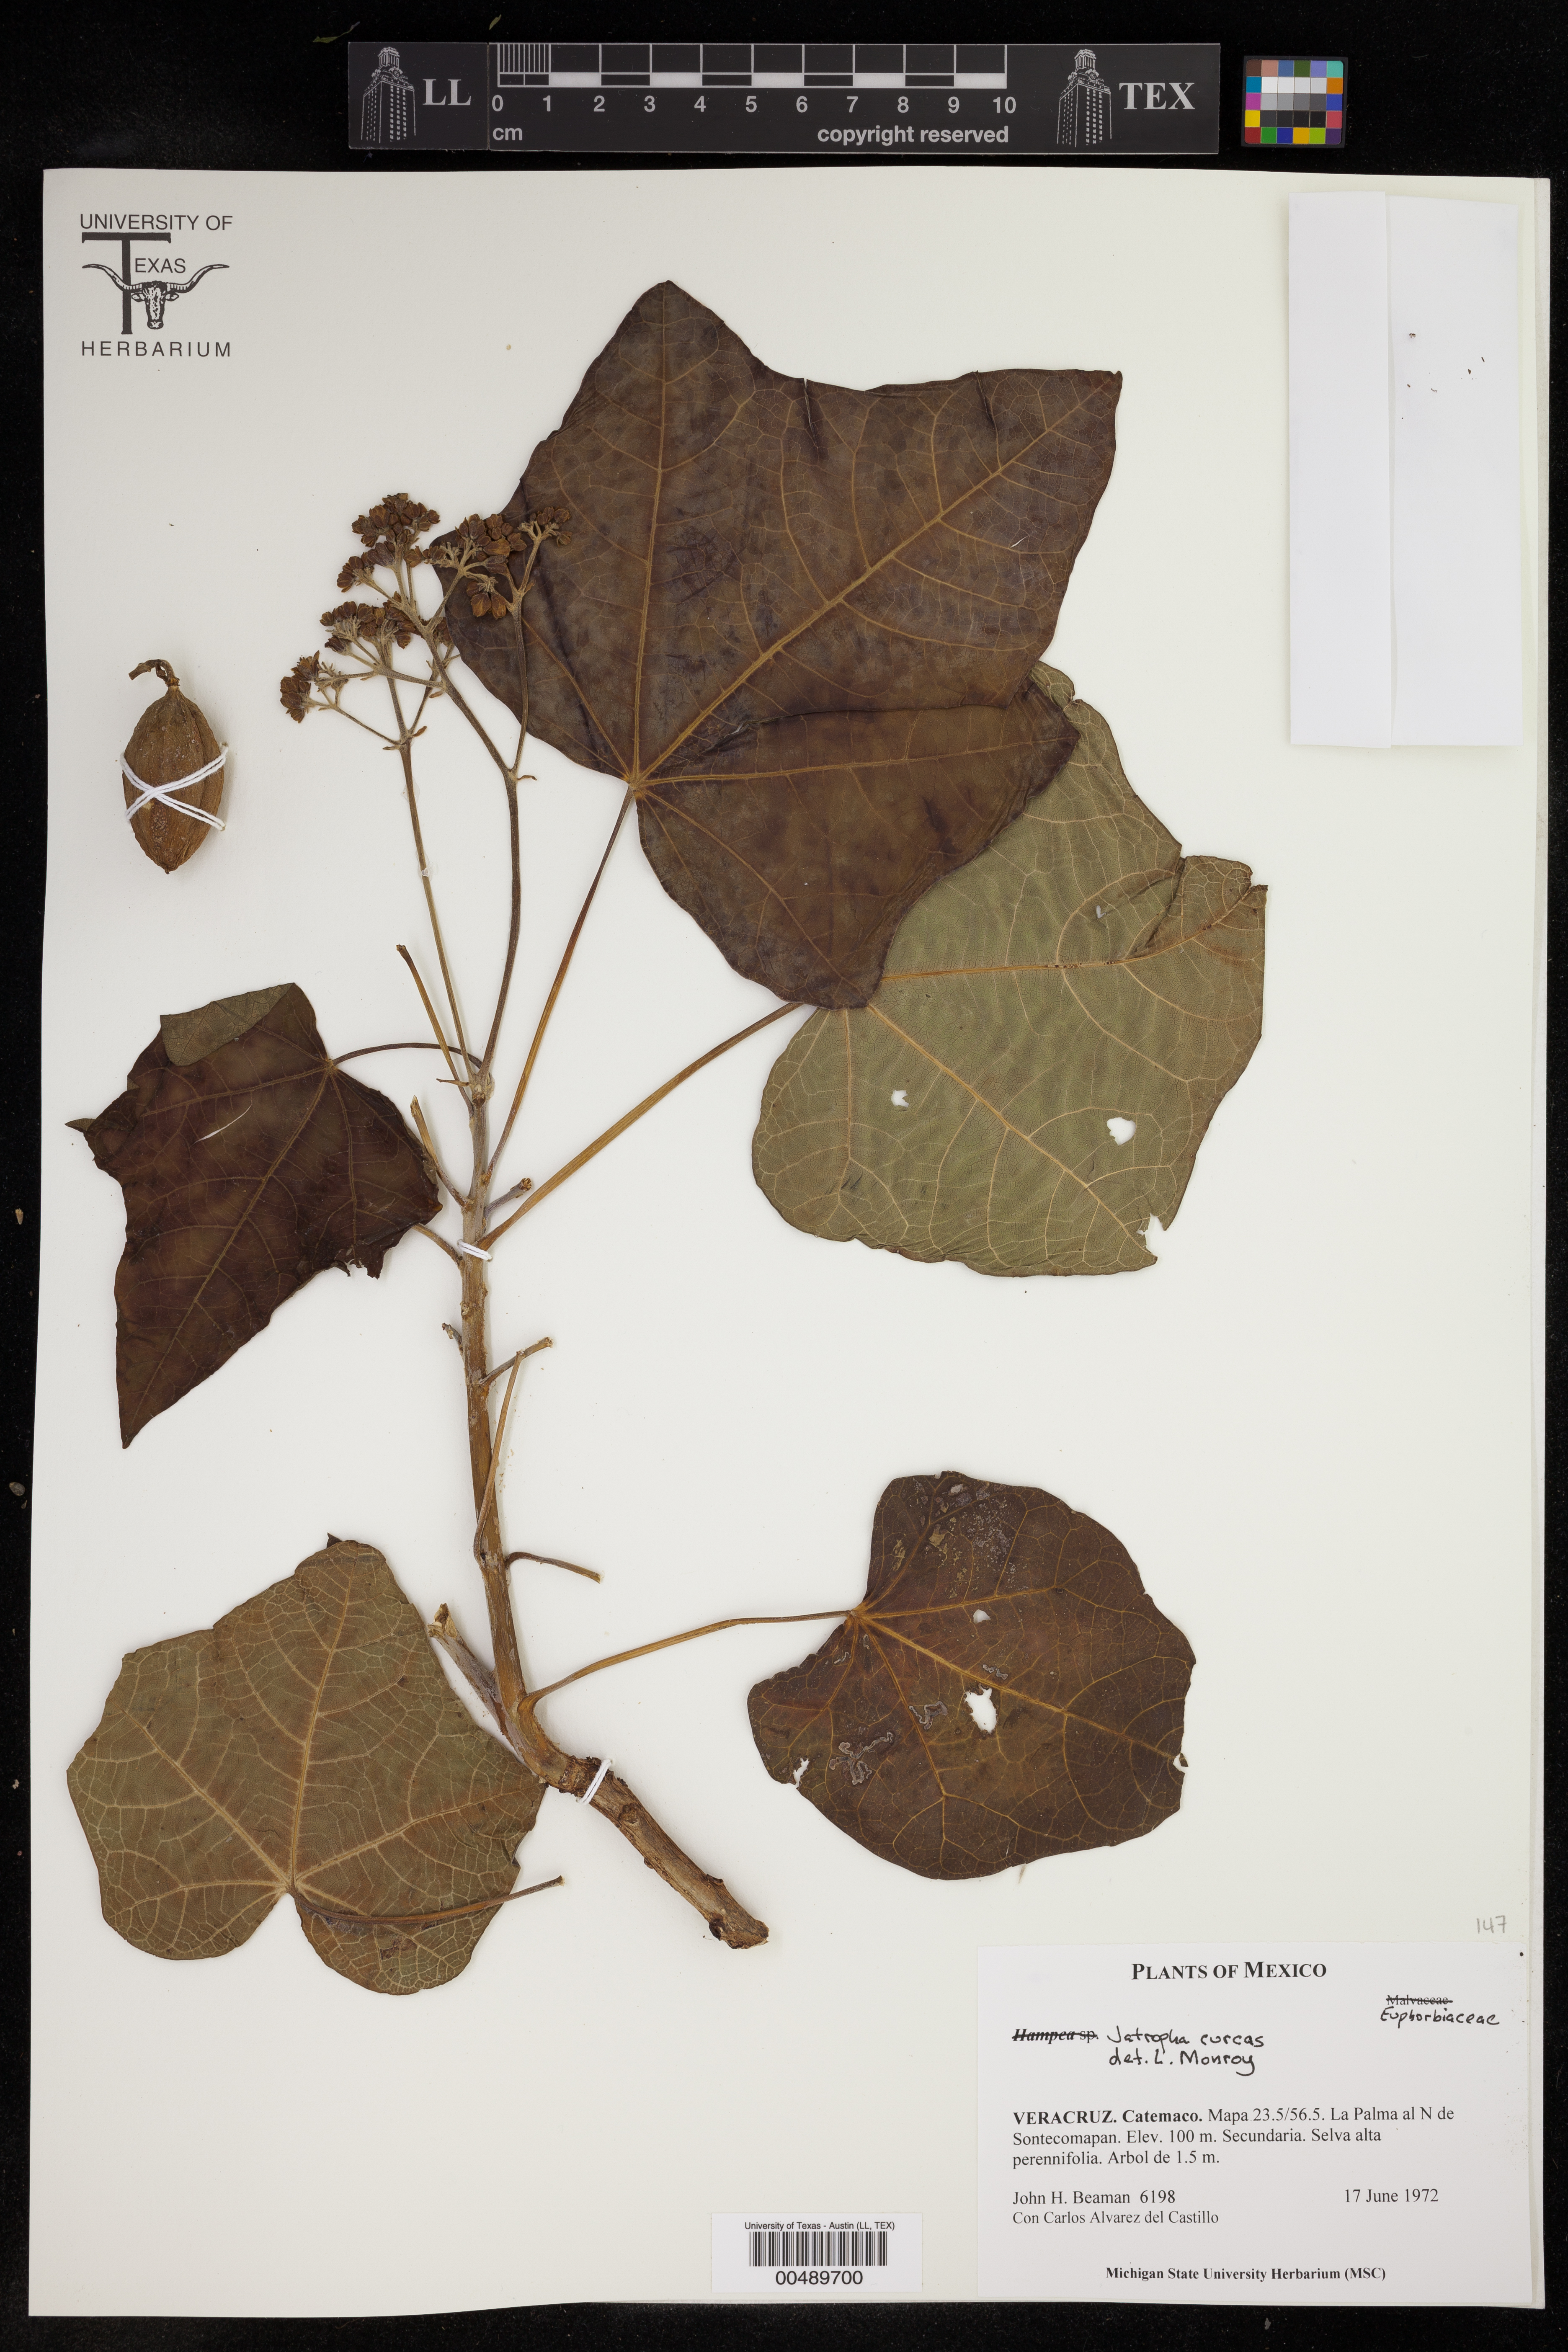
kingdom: Plantae
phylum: Tracheophyta
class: Magnoliopsida
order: Malpighiales
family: Euphorbiaceae
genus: Jatropha
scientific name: Jatropha curcas
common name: Barbados nut
